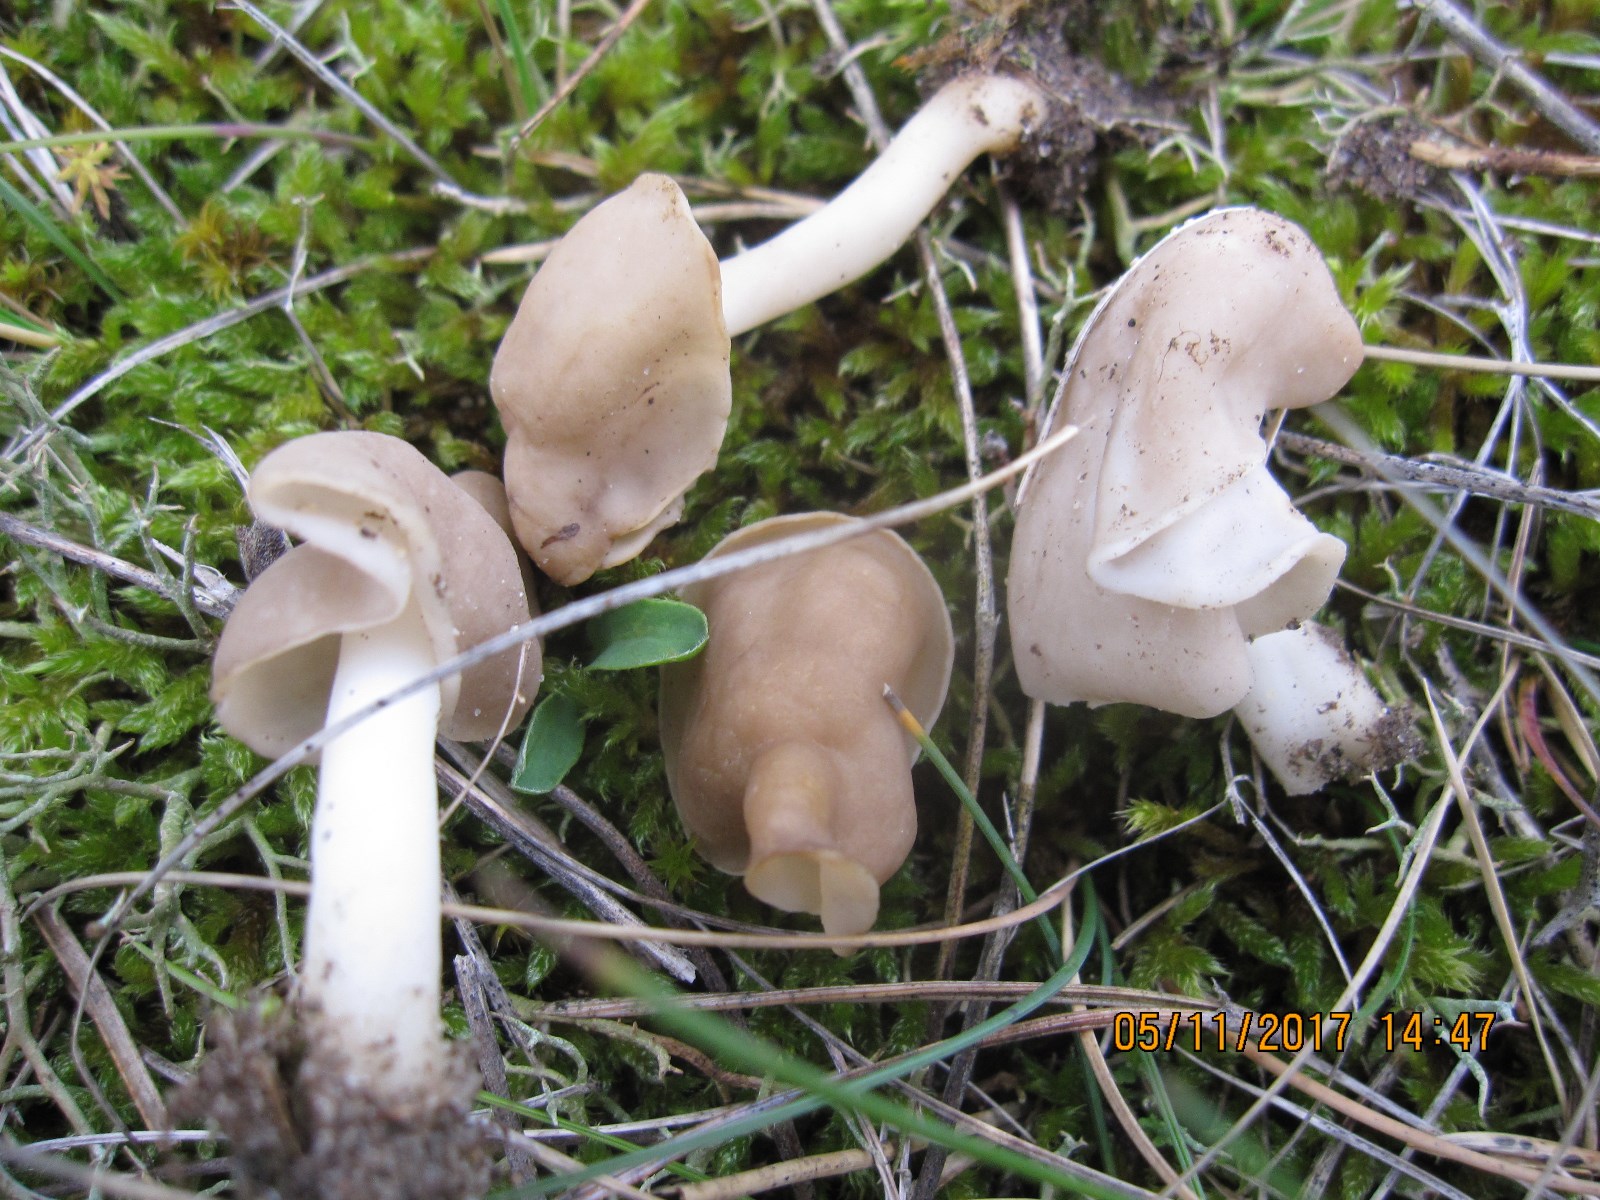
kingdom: Fungi
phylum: Ascomycota
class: Pezizomycetes
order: Pezizales
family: Helvellaceae
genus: Helvella
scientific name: Helvella elastica
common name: elastik-foldhat
